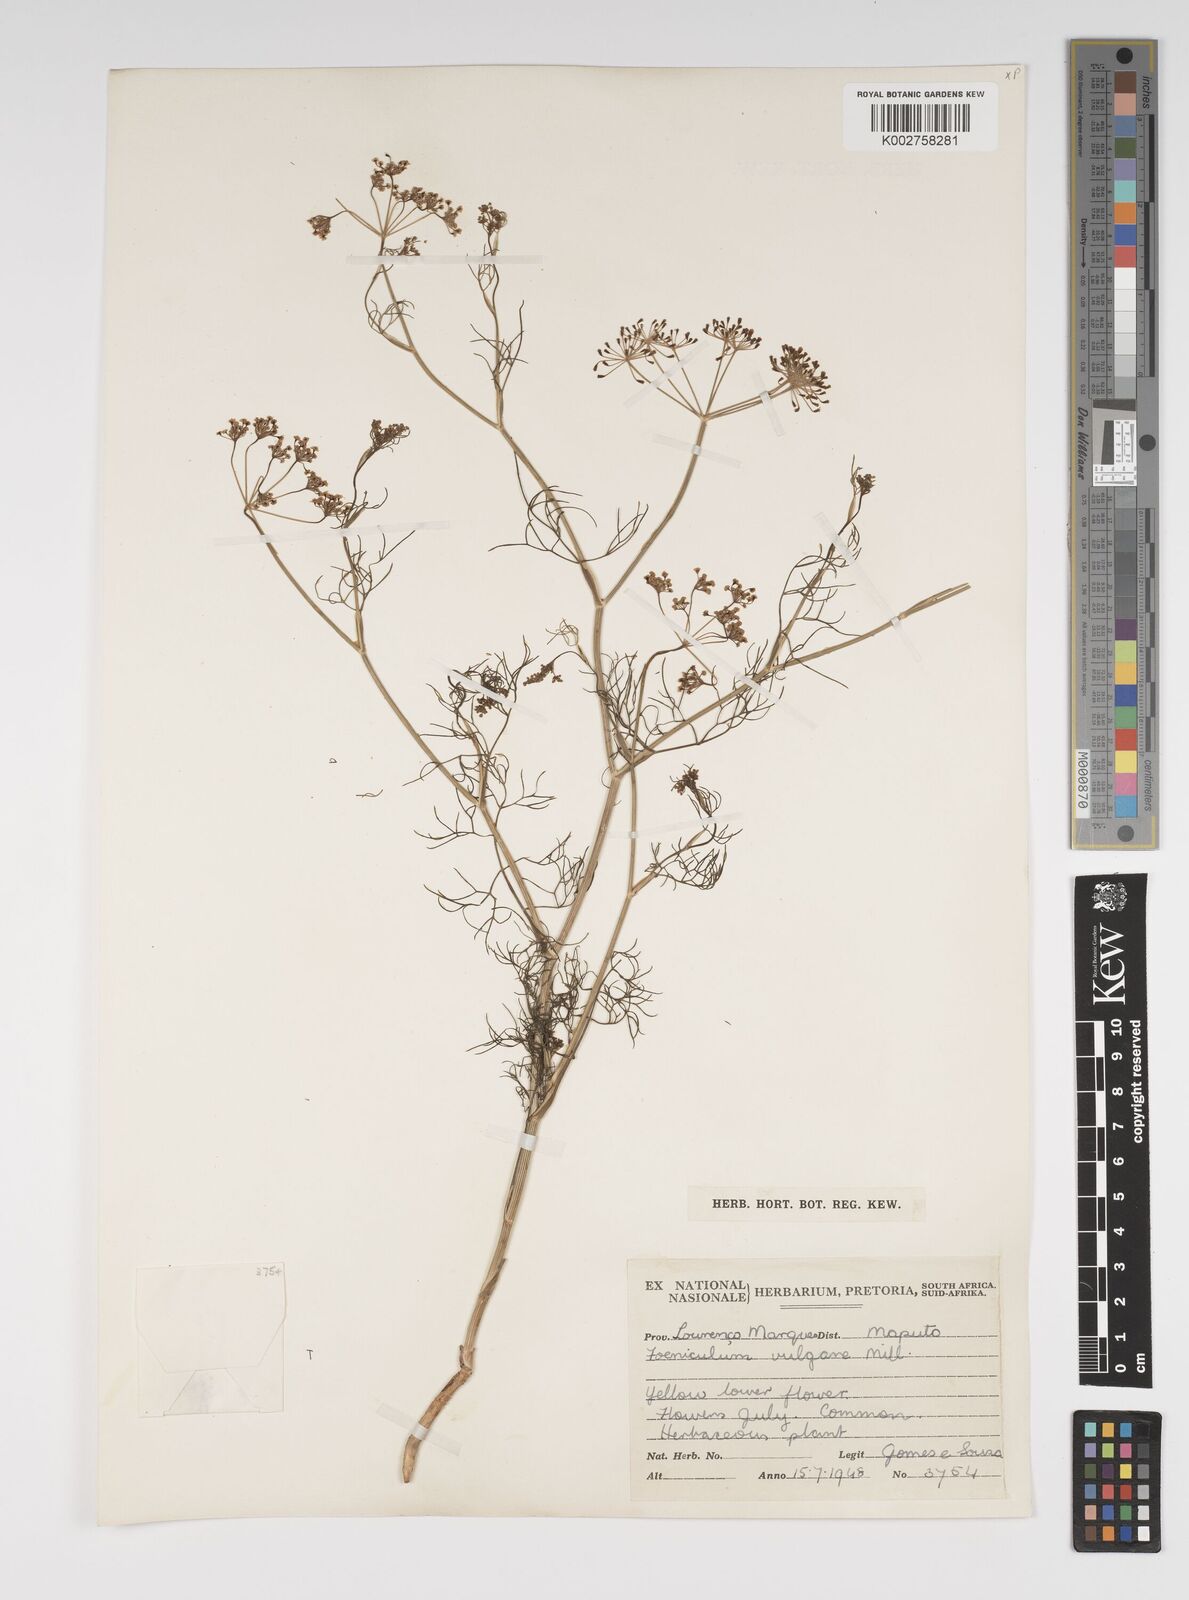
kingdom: Plantae
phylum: Tracheophyta
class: Magnoliopsida
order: Apiales
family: Apiaceae
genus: Foeniculum
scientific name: Foeniculum vulgare
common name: Fennel
